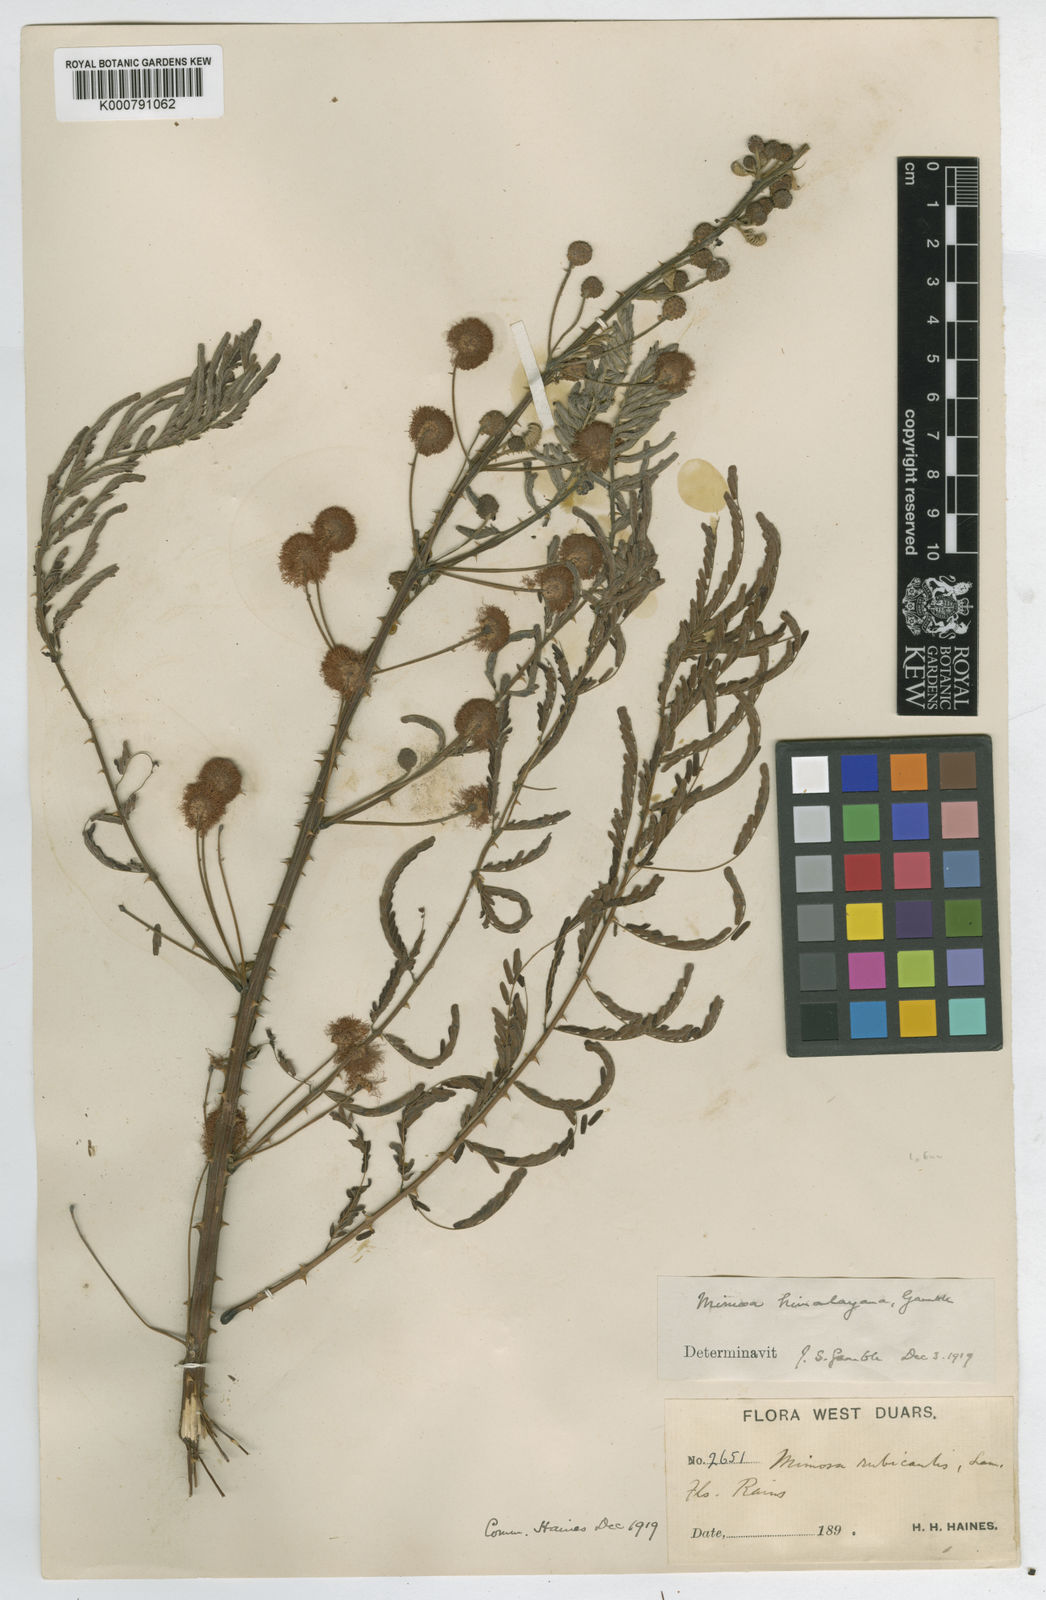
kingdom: Plantae
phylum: Tracheophyta
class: Magnoliopsida
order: Fabales
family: Fabaceae
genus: Mimosa
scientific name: Mimosa rubicaulis
